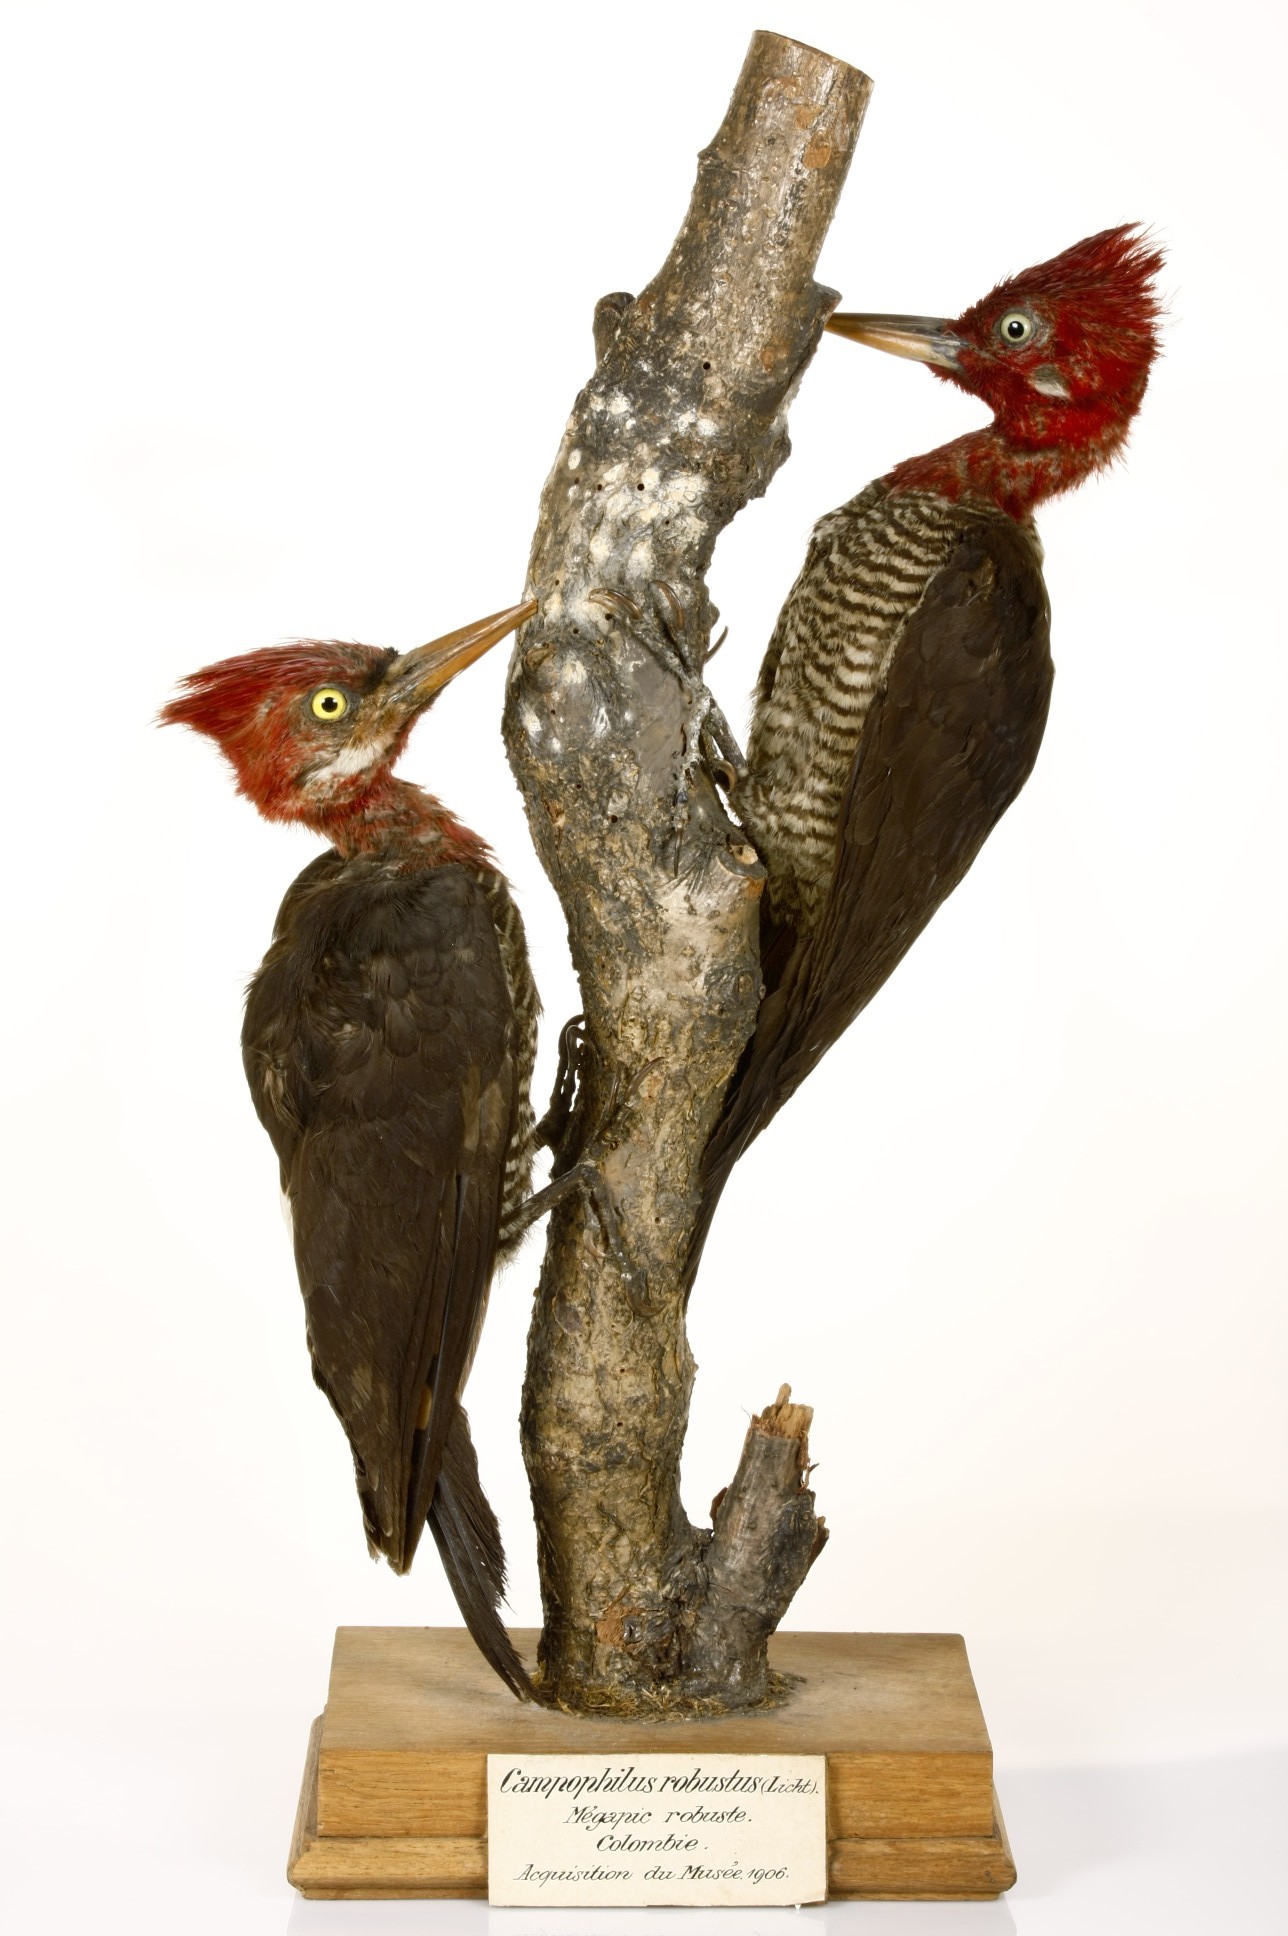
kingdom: Animalia
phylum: Chordata
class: Aves
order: Piciformes
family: Picidae
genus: Campephilus
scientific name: Campephilus robustus
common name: Robust woodpecker
